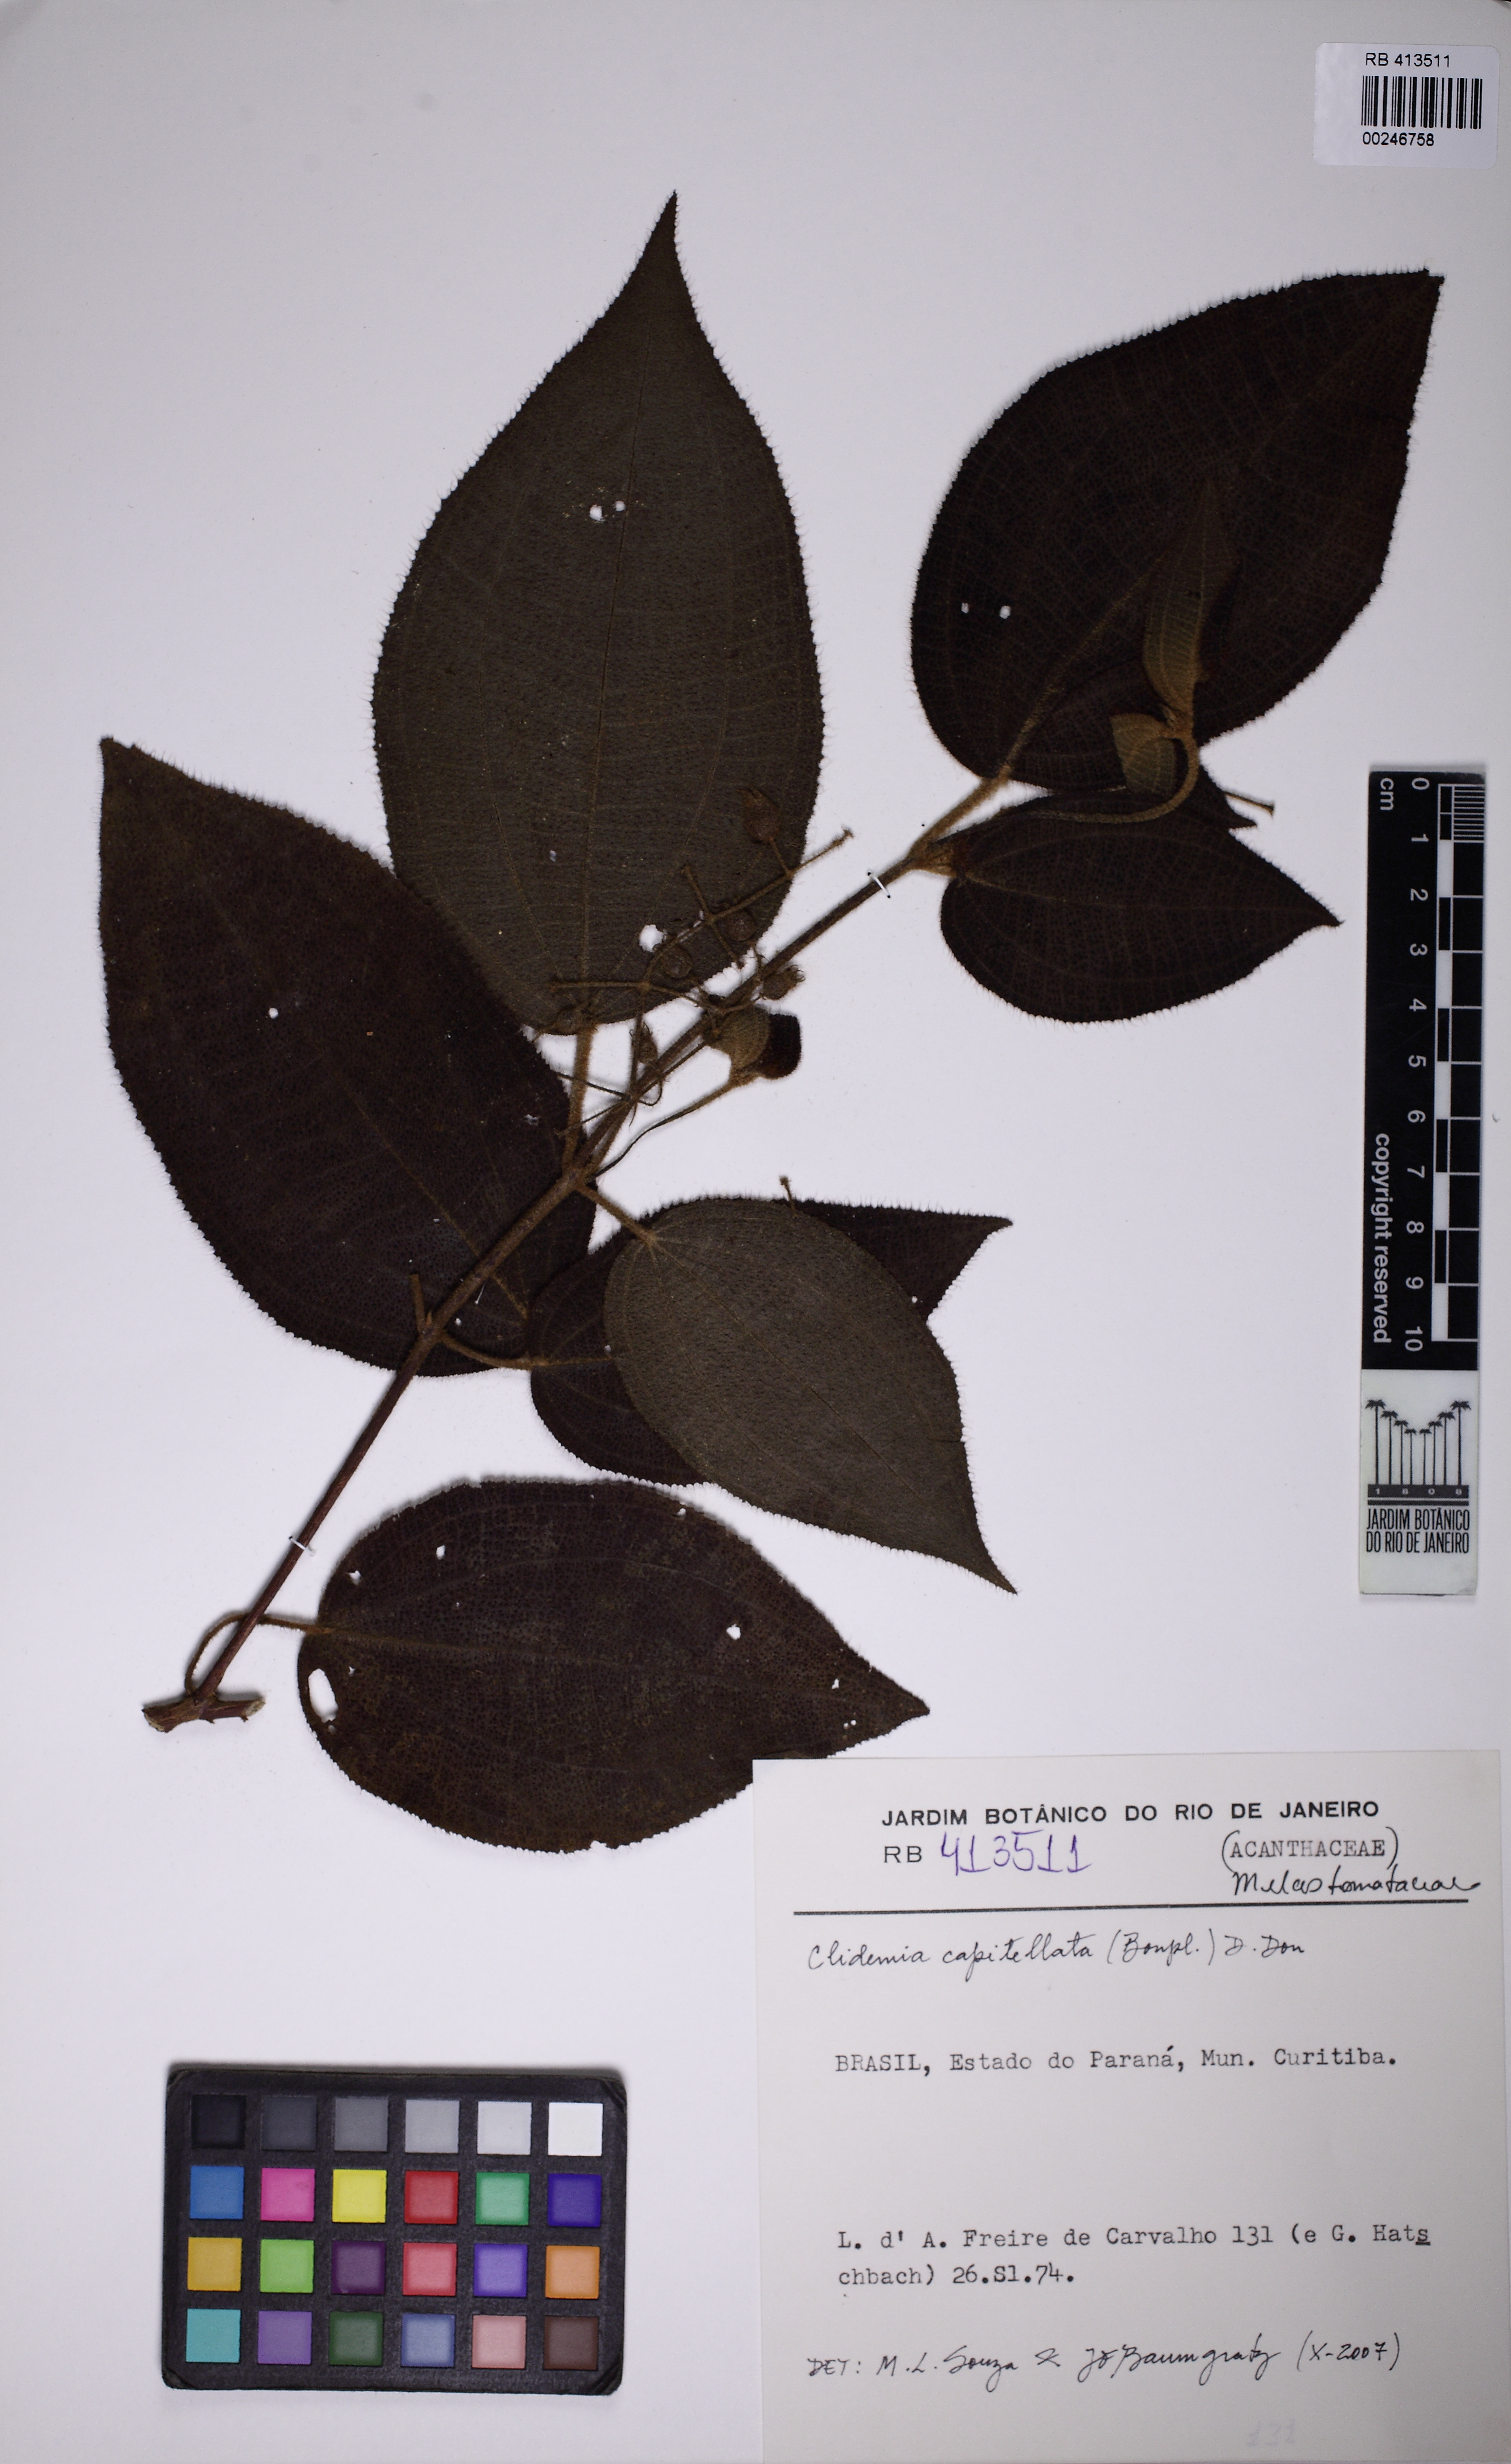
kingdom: Plantae
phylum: Tracheophyta
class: Magnoliopsida
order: Myrtales
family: Melastomataceae
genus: Miconia
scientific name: Miconia biserrata
